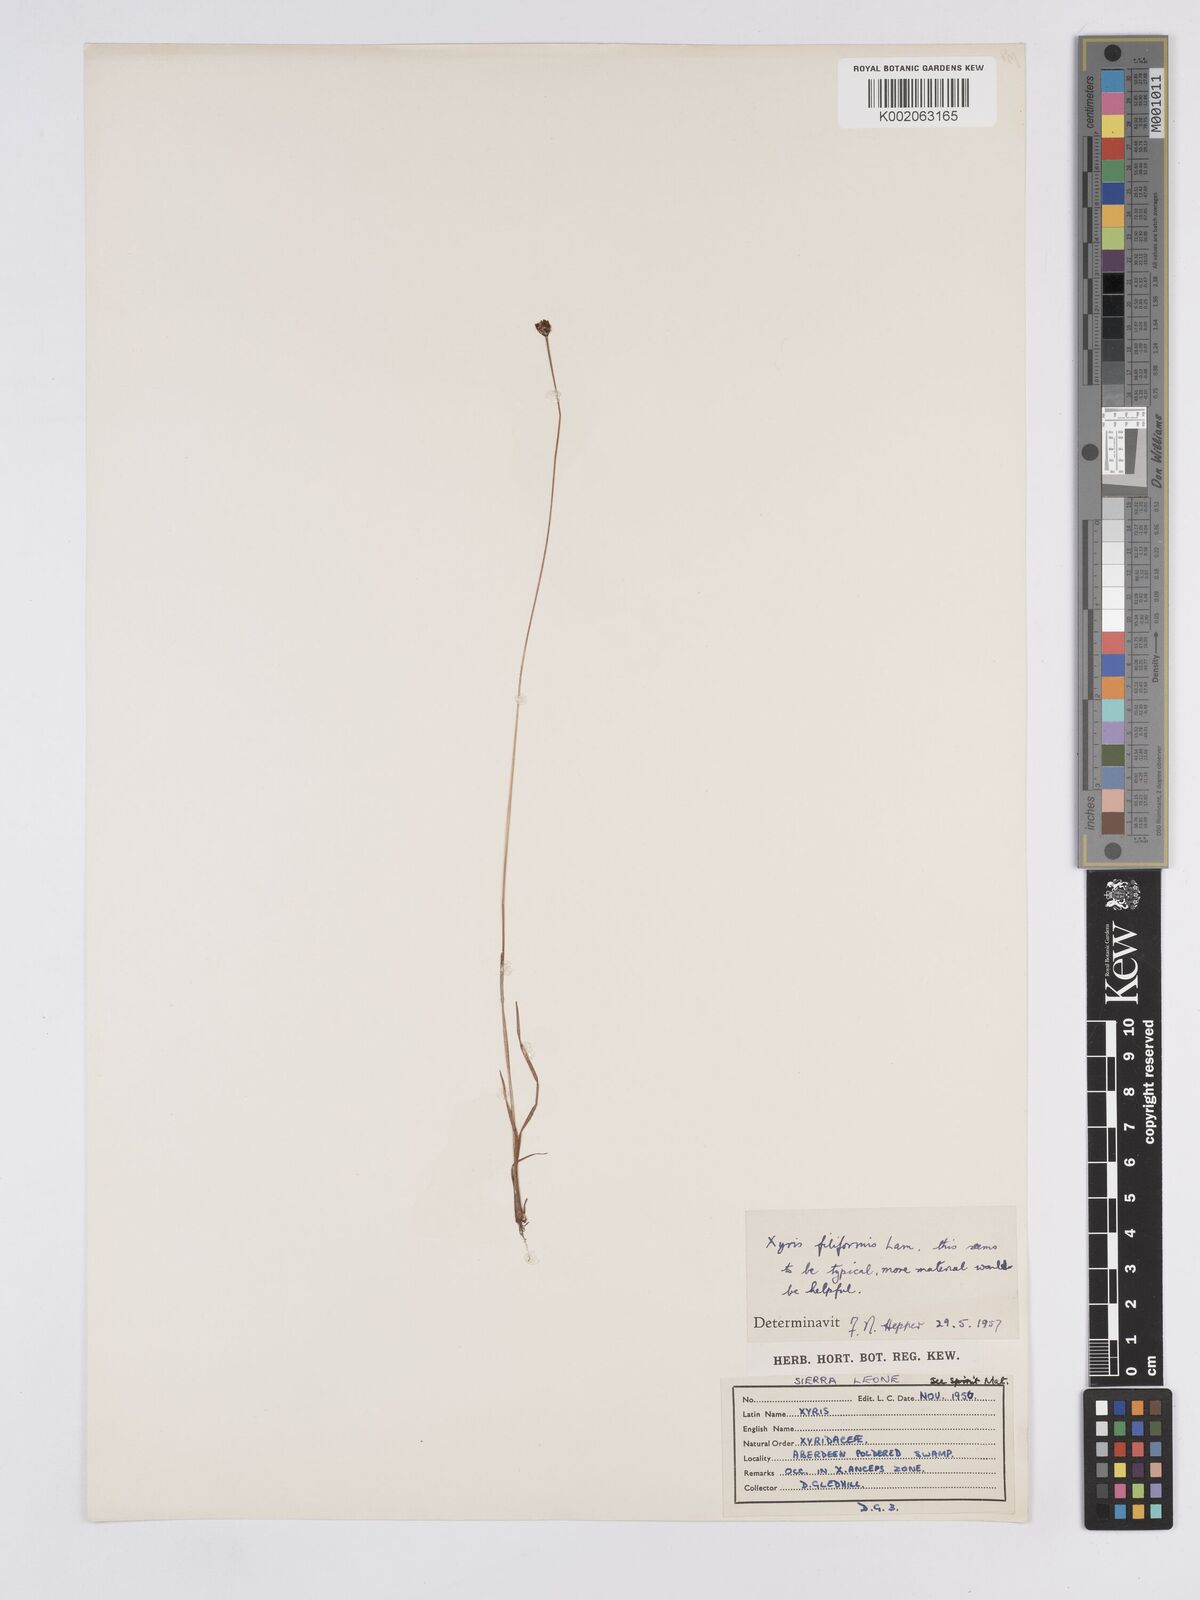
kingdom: Plantae
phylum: Tracheophyta
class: Liliopsida
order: Poales
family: Xyridaceae
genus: Xyris
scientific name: Xyris filiformis
